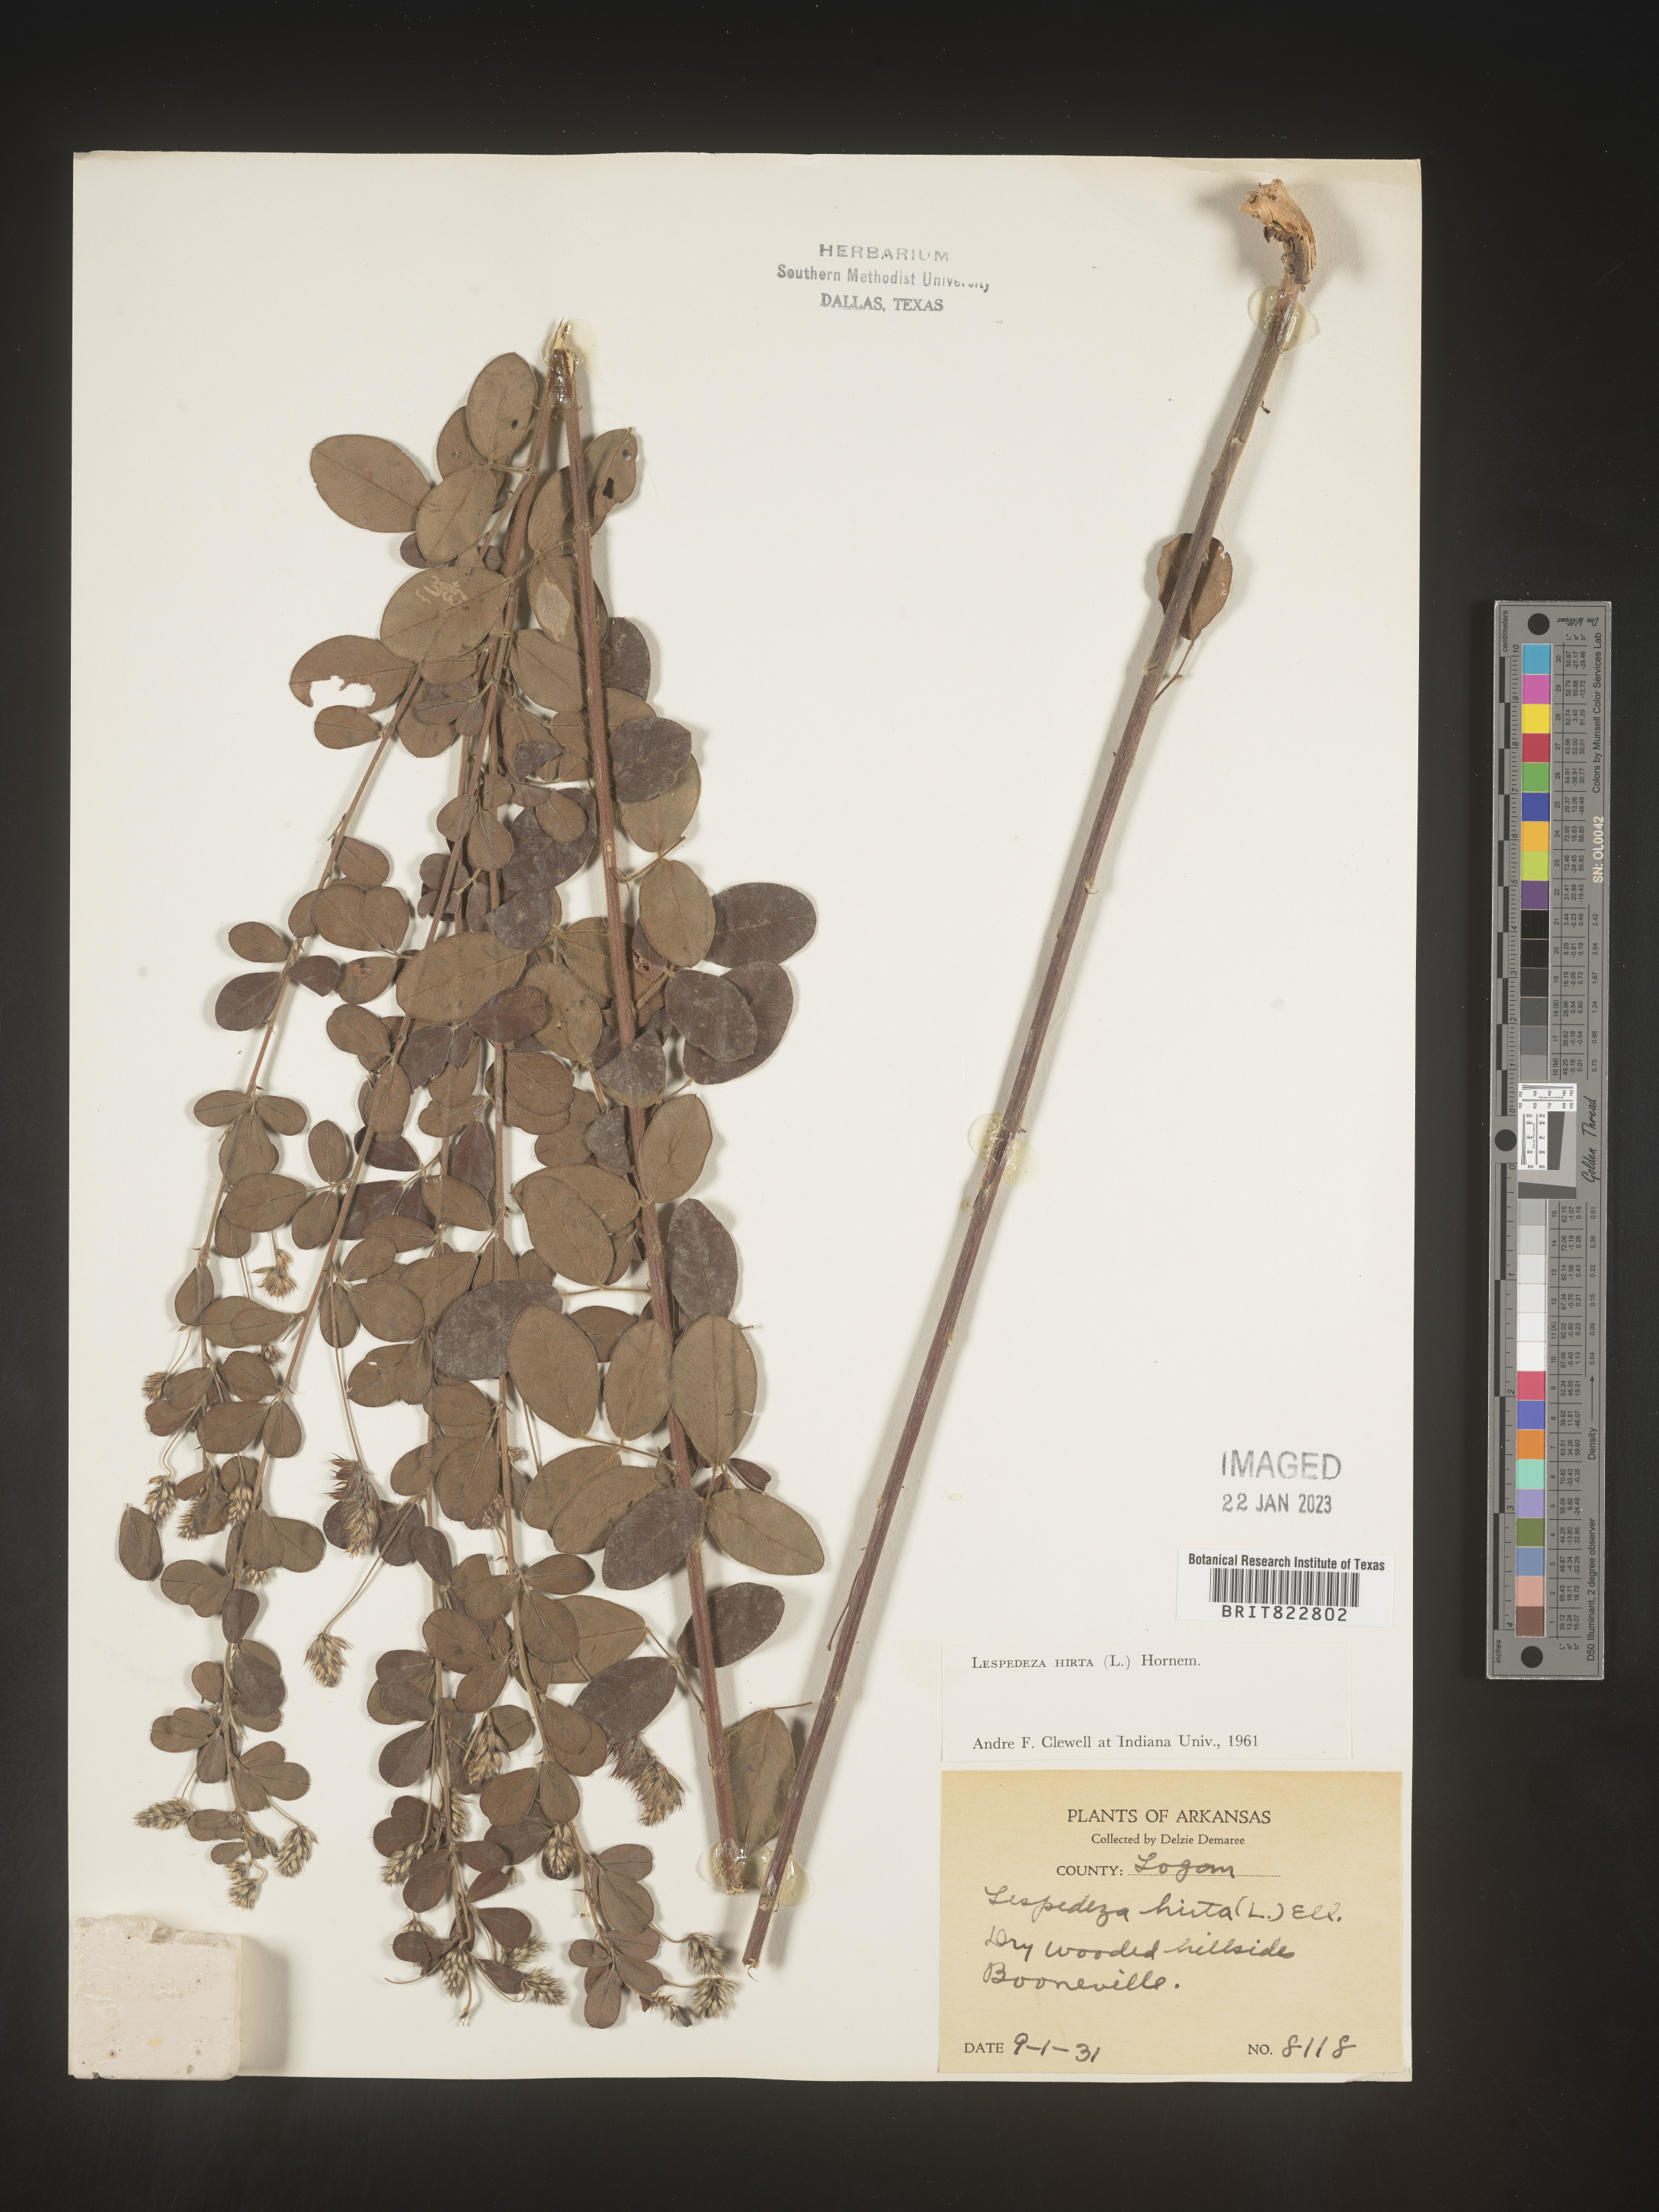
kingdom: Plantae
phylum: Tracheophyta
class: Magnoliopsida
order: Fabales
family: Fabaceae
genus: Lespedeza
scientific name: Lespedeza hirta
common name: Hairy lespedeza
